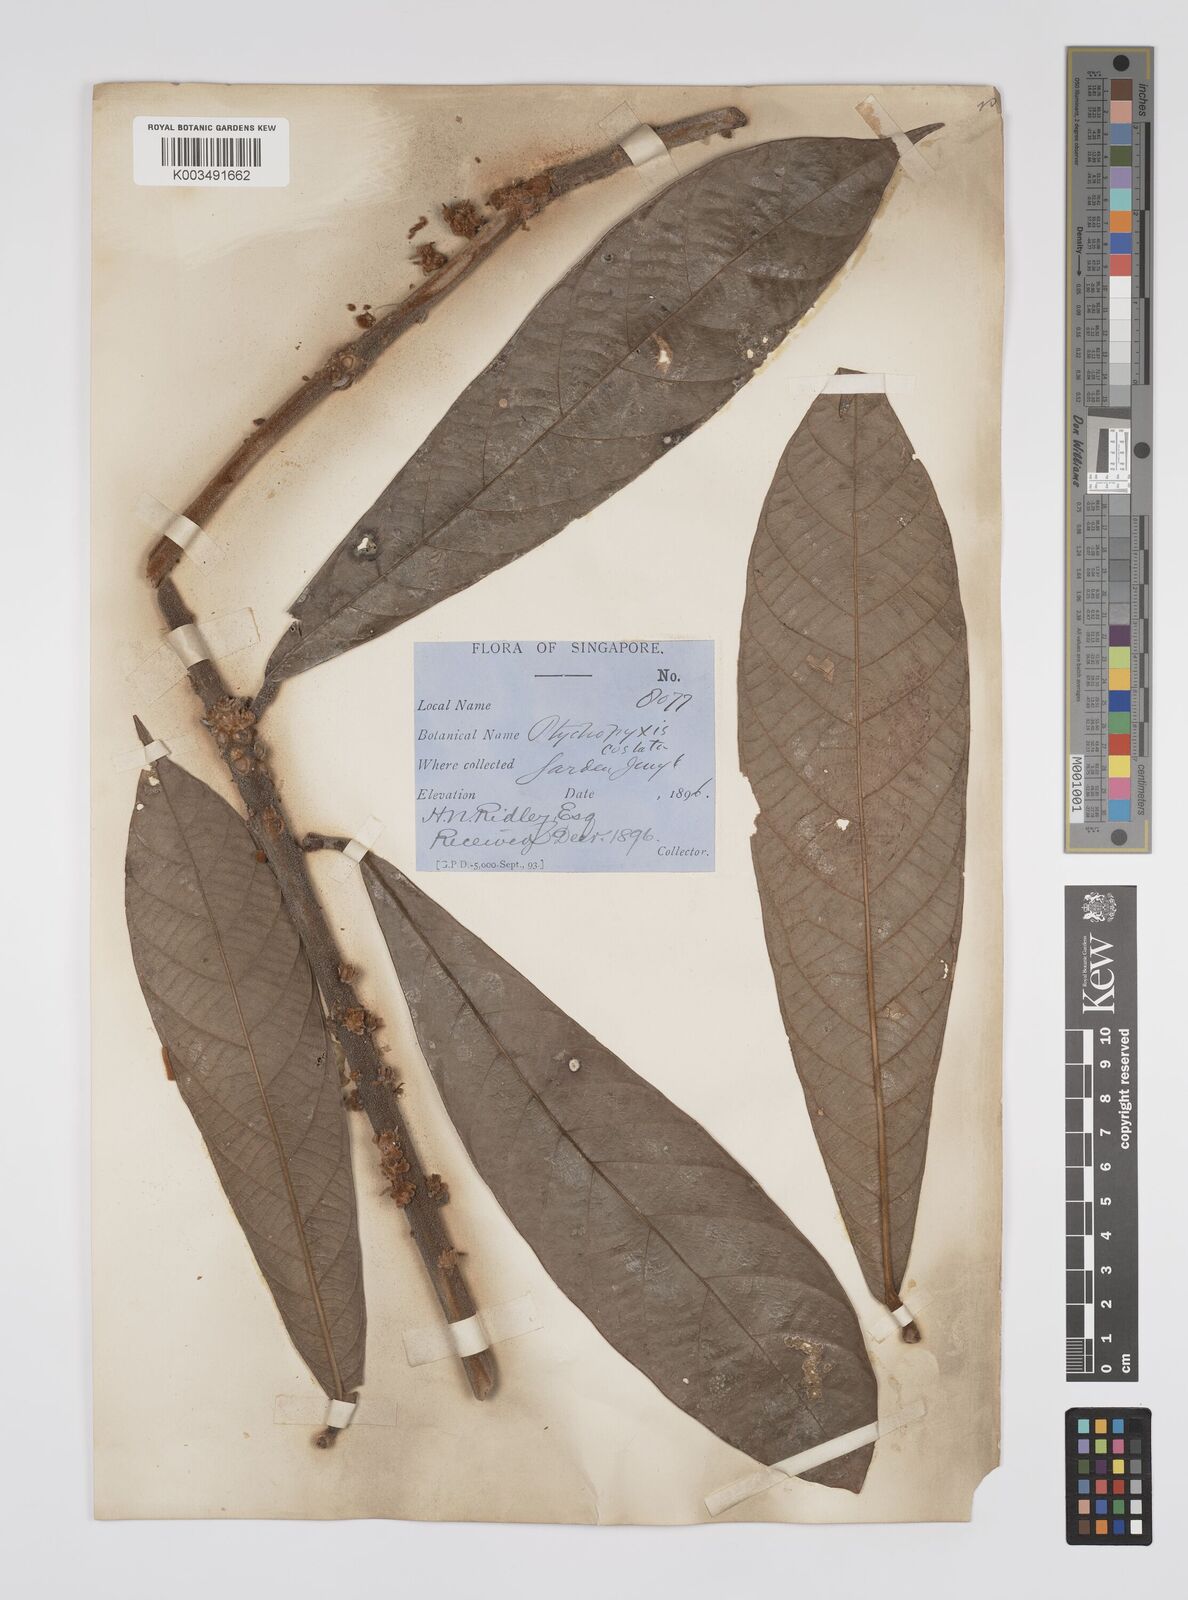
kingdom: Plantae
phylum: Tracheophyta
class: Magnoliopsida
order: Malpighiales
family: Euphorbiaceae
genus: Ptychopyxis
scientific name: Ptychopyxis costata
